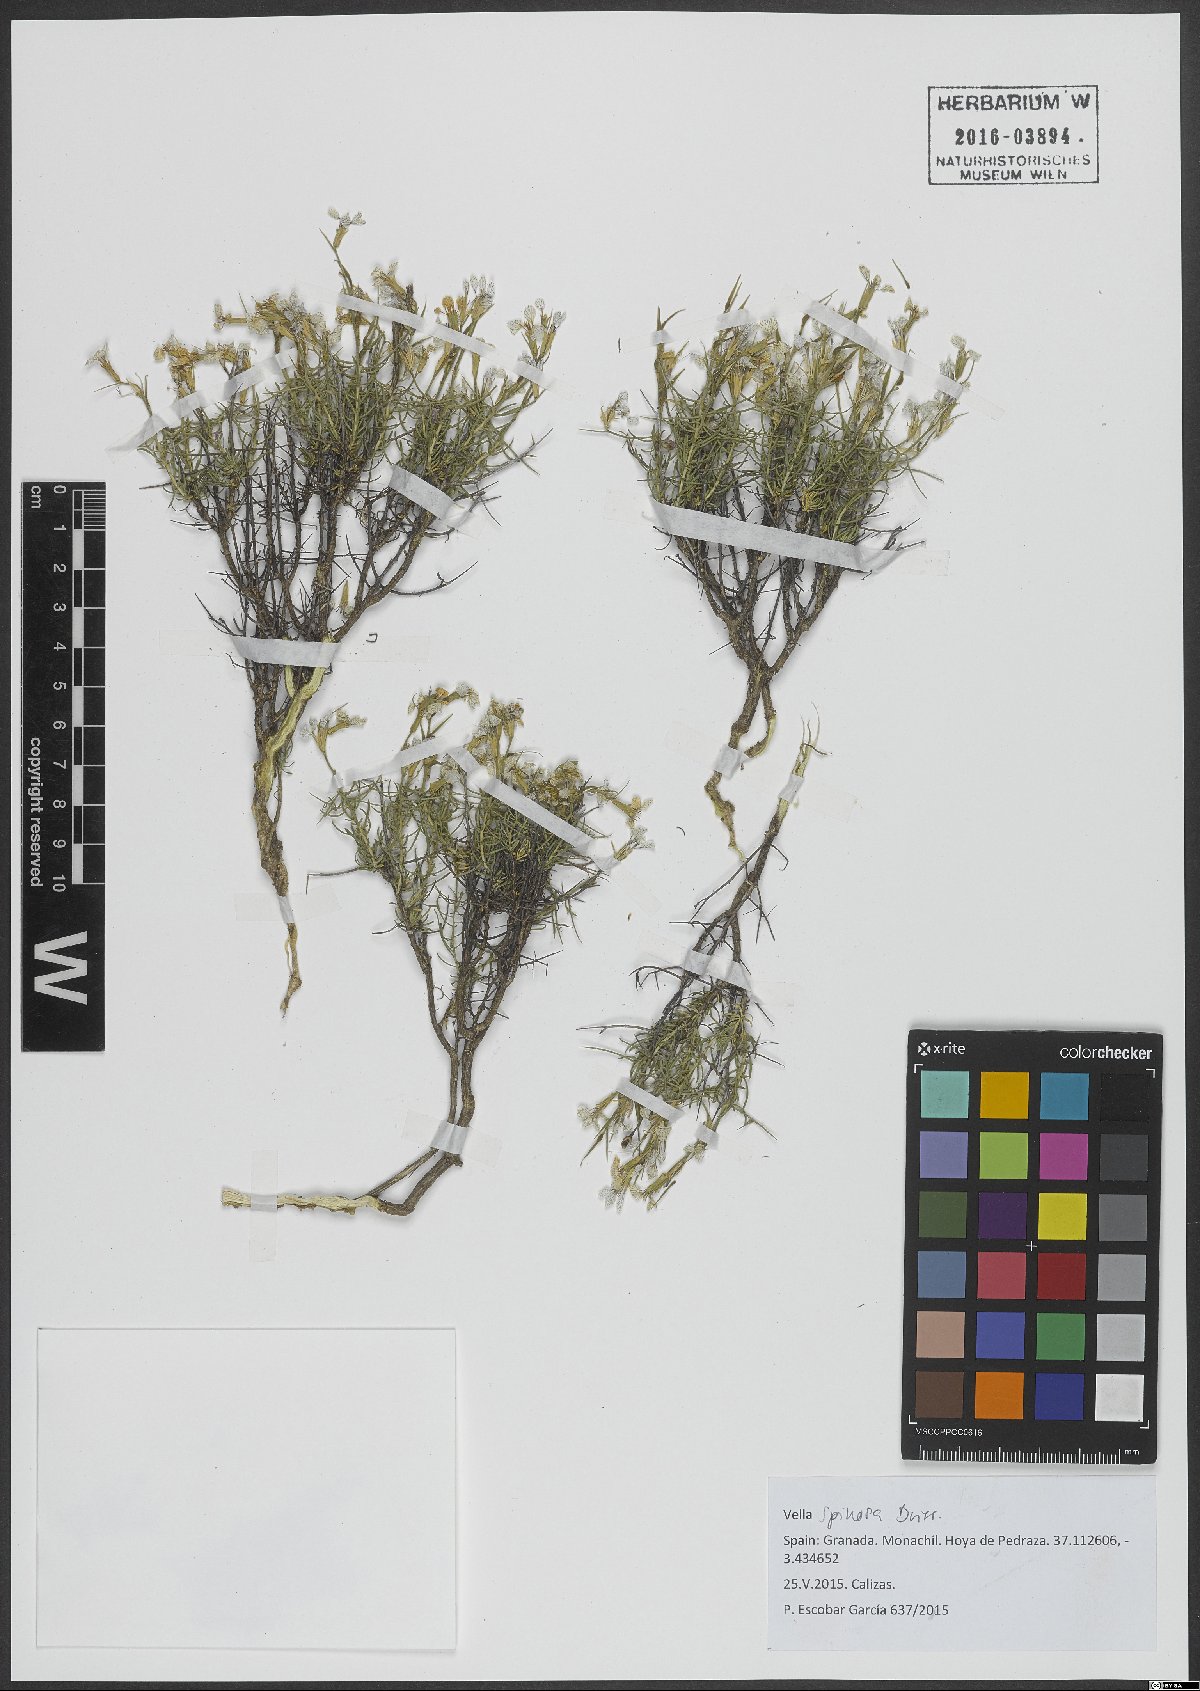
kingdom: Plantae
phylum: Tracheophyta
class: Magnoliopsida
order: Brassicales
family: Brassicaceae
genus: Vella
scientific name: Vella spinosa
